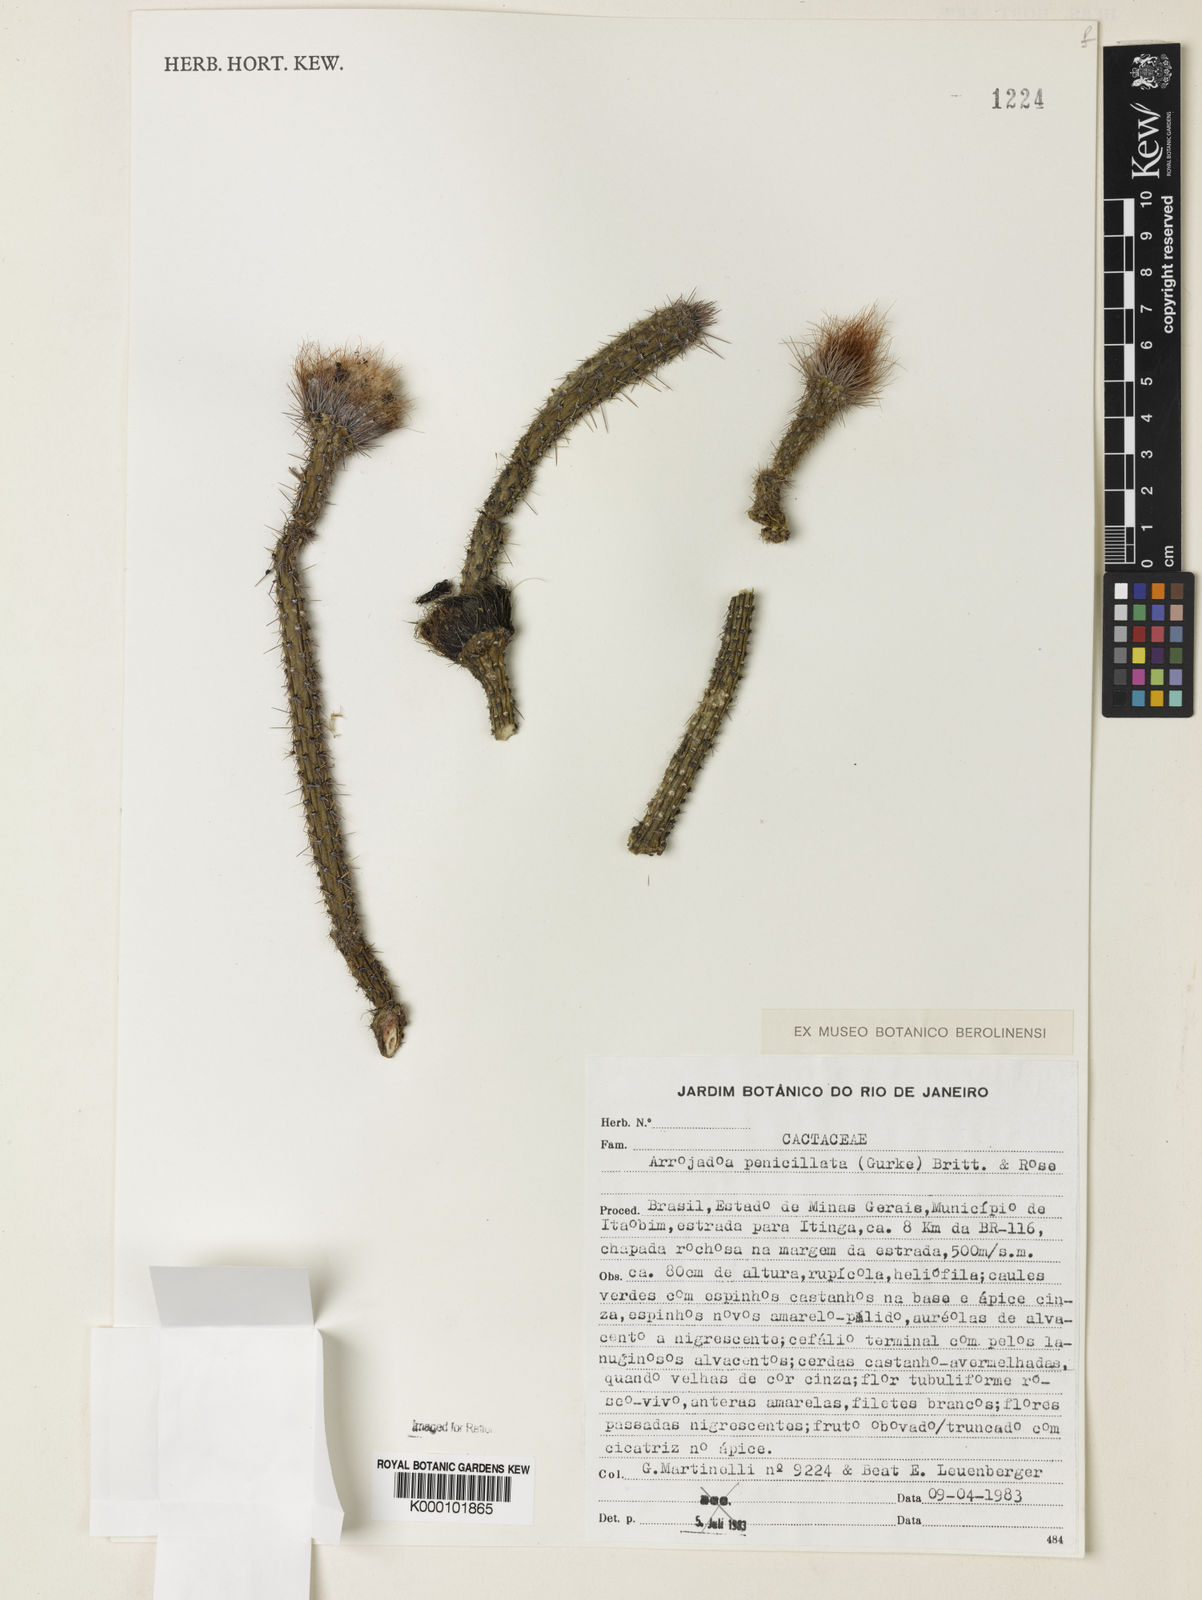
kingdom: Plantae
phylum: Tracheophyta
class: Magnoliopsida
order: Caryophyllales
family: Cactaceae
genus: Arrojadoa
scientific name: Arrojadoa
